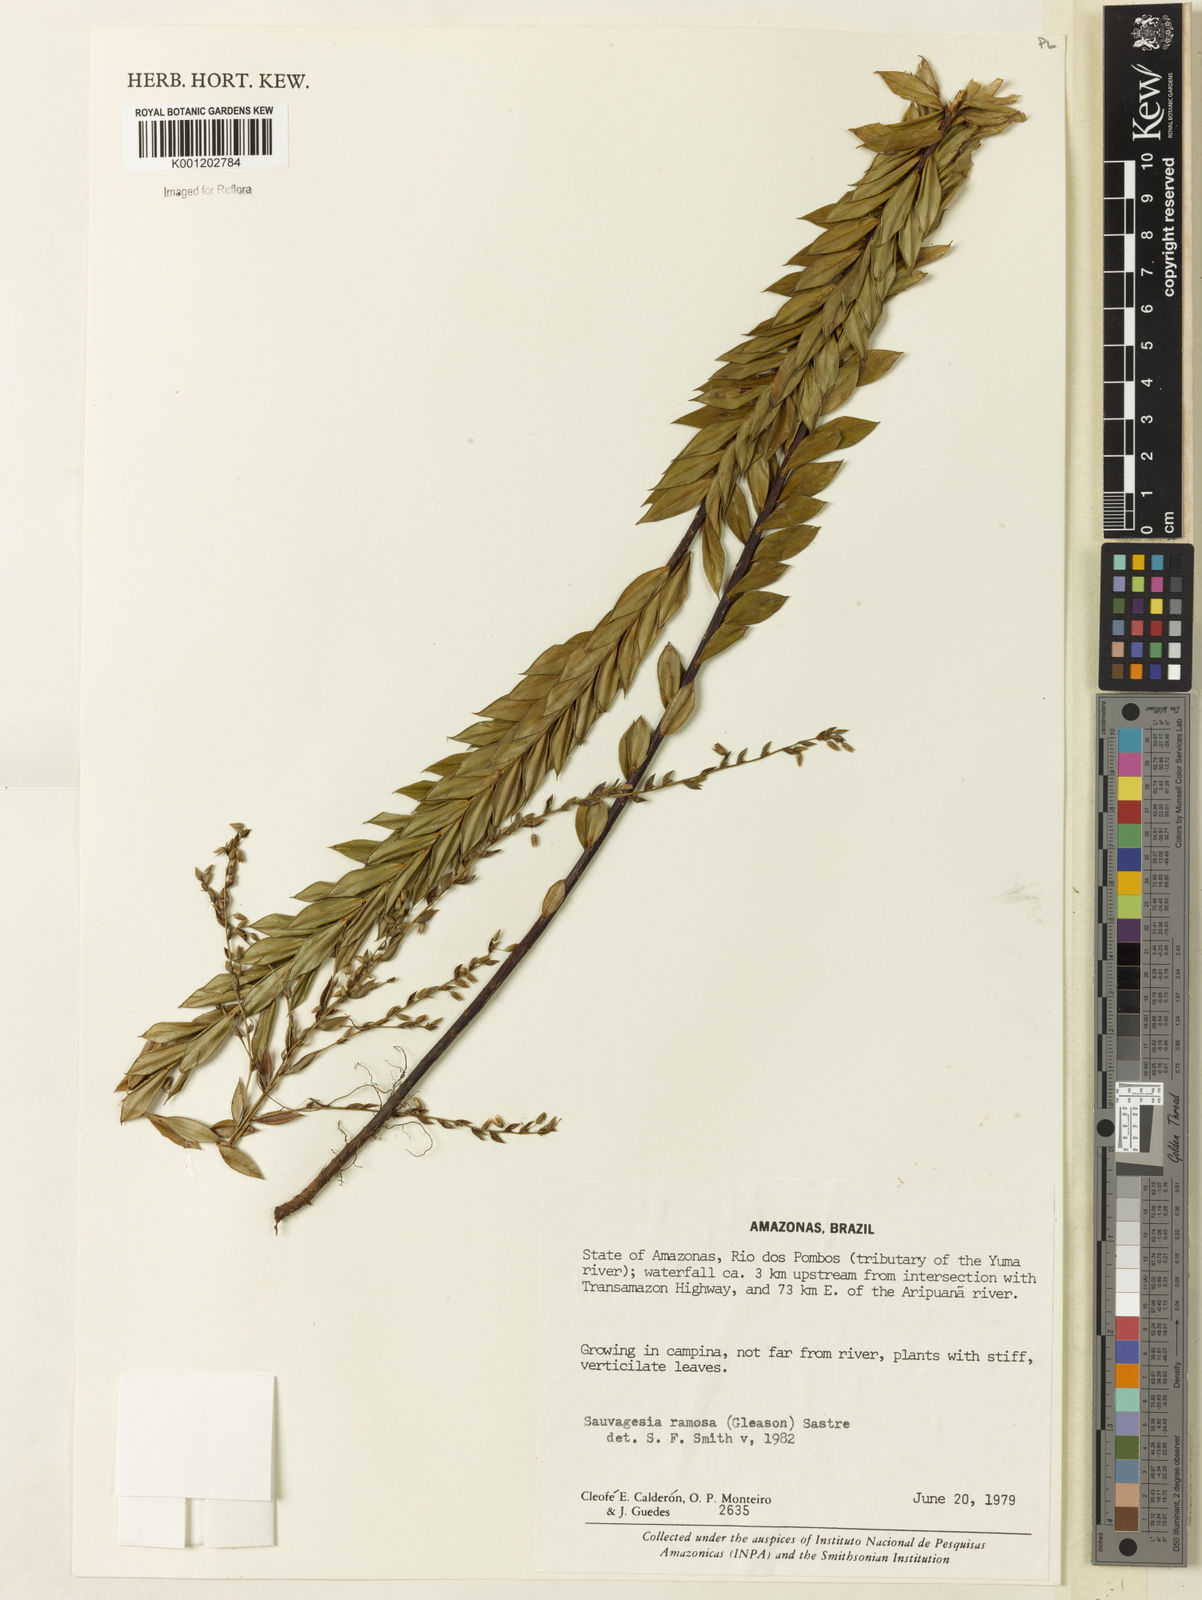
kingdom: Plantae
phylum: Tracheophyta
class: Magnoliopsida
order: Malpighiales
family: Ochnaceae
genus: Sauvagesia
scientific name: Sauvagesia ramosa
